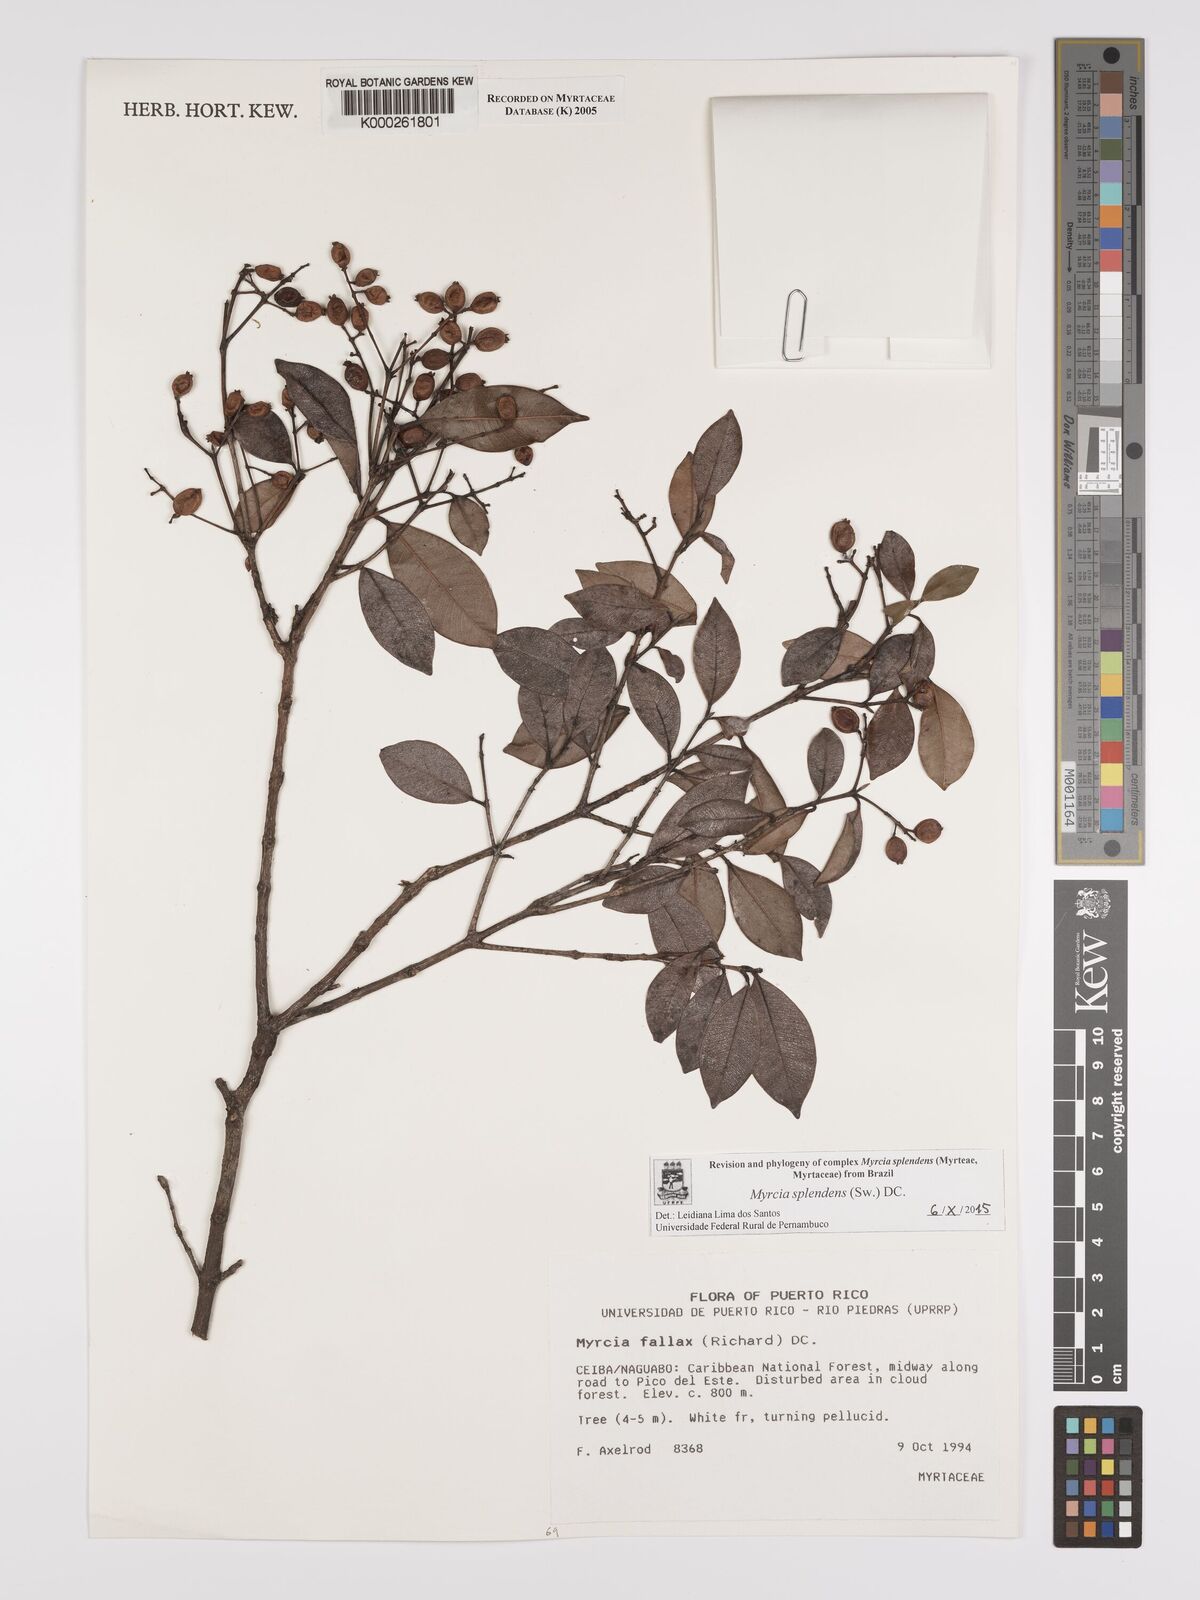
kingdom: Plantae
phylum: Tracheophyta
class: Magnoliopsida
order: Myrtales
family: Myrtaceae
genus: Myrcia
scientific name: Myrcia splendens
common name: Surinam cherry
